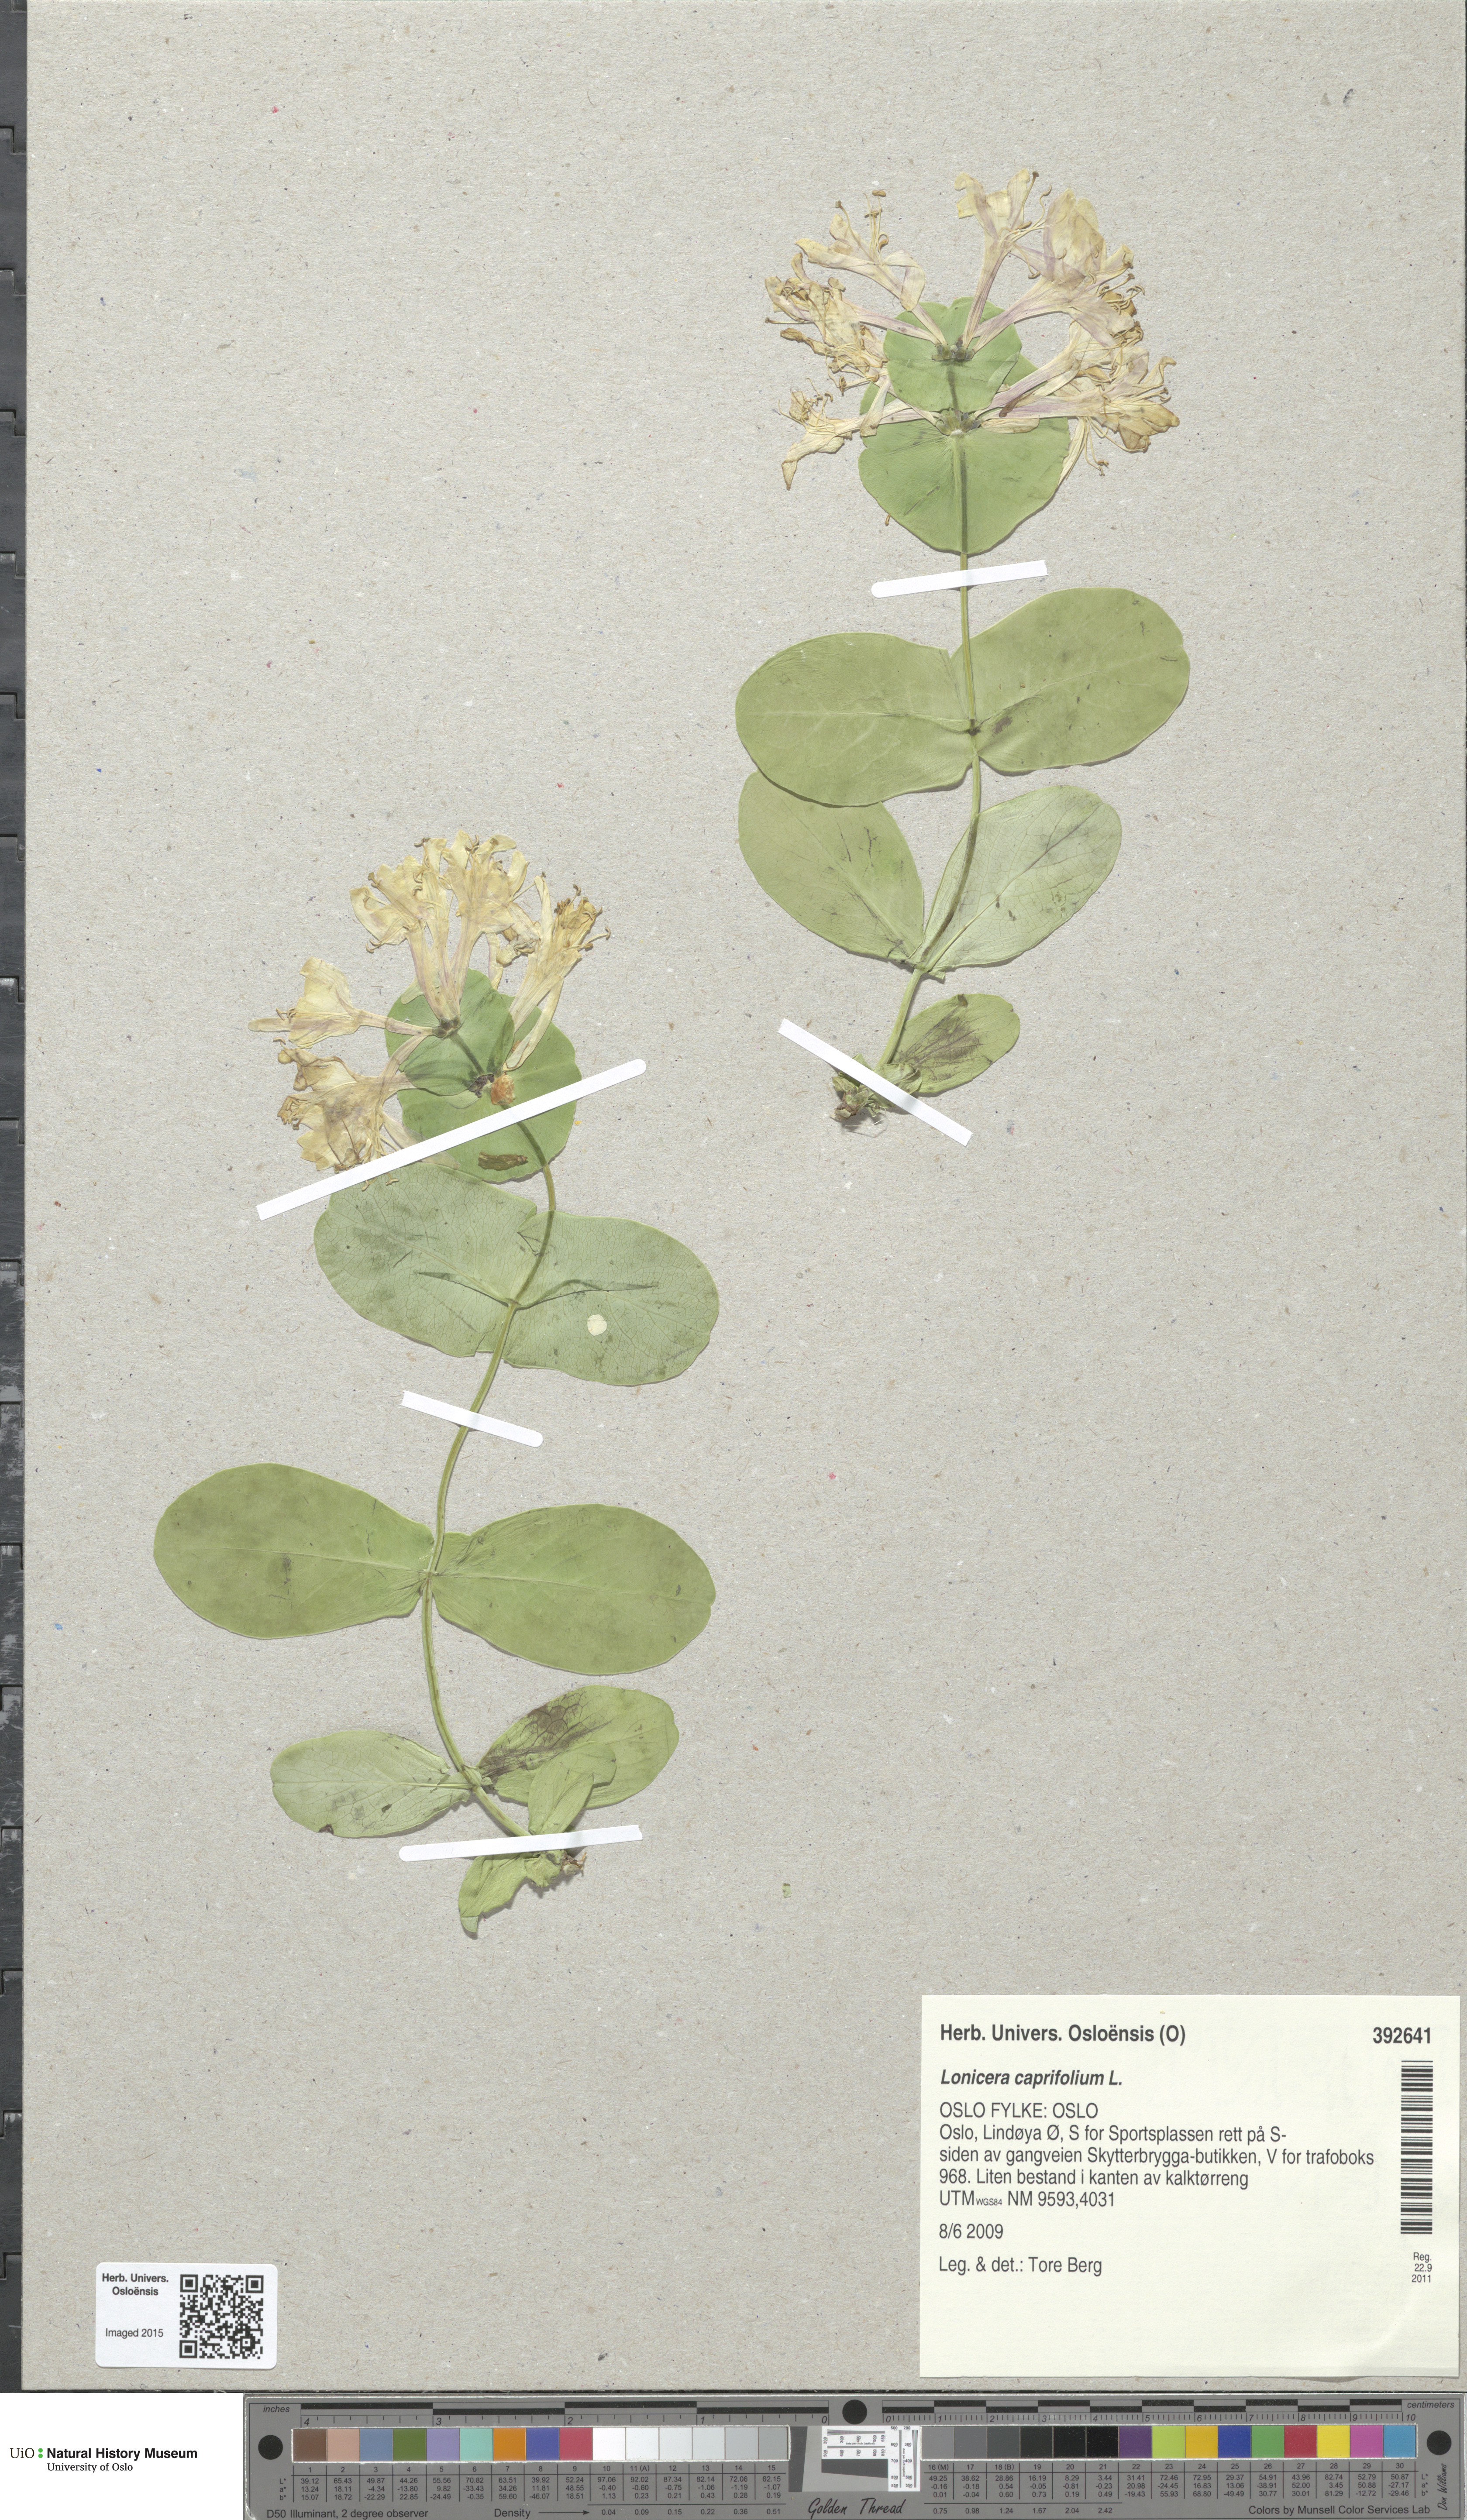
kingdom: Plantae
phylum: Tracheophyta
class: Magnoliopsida
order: Dipsacales
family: Caprifoliaceae
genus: Lonicera
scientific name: Lonicera caprifolium
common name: Perfoliate honeysuckle
